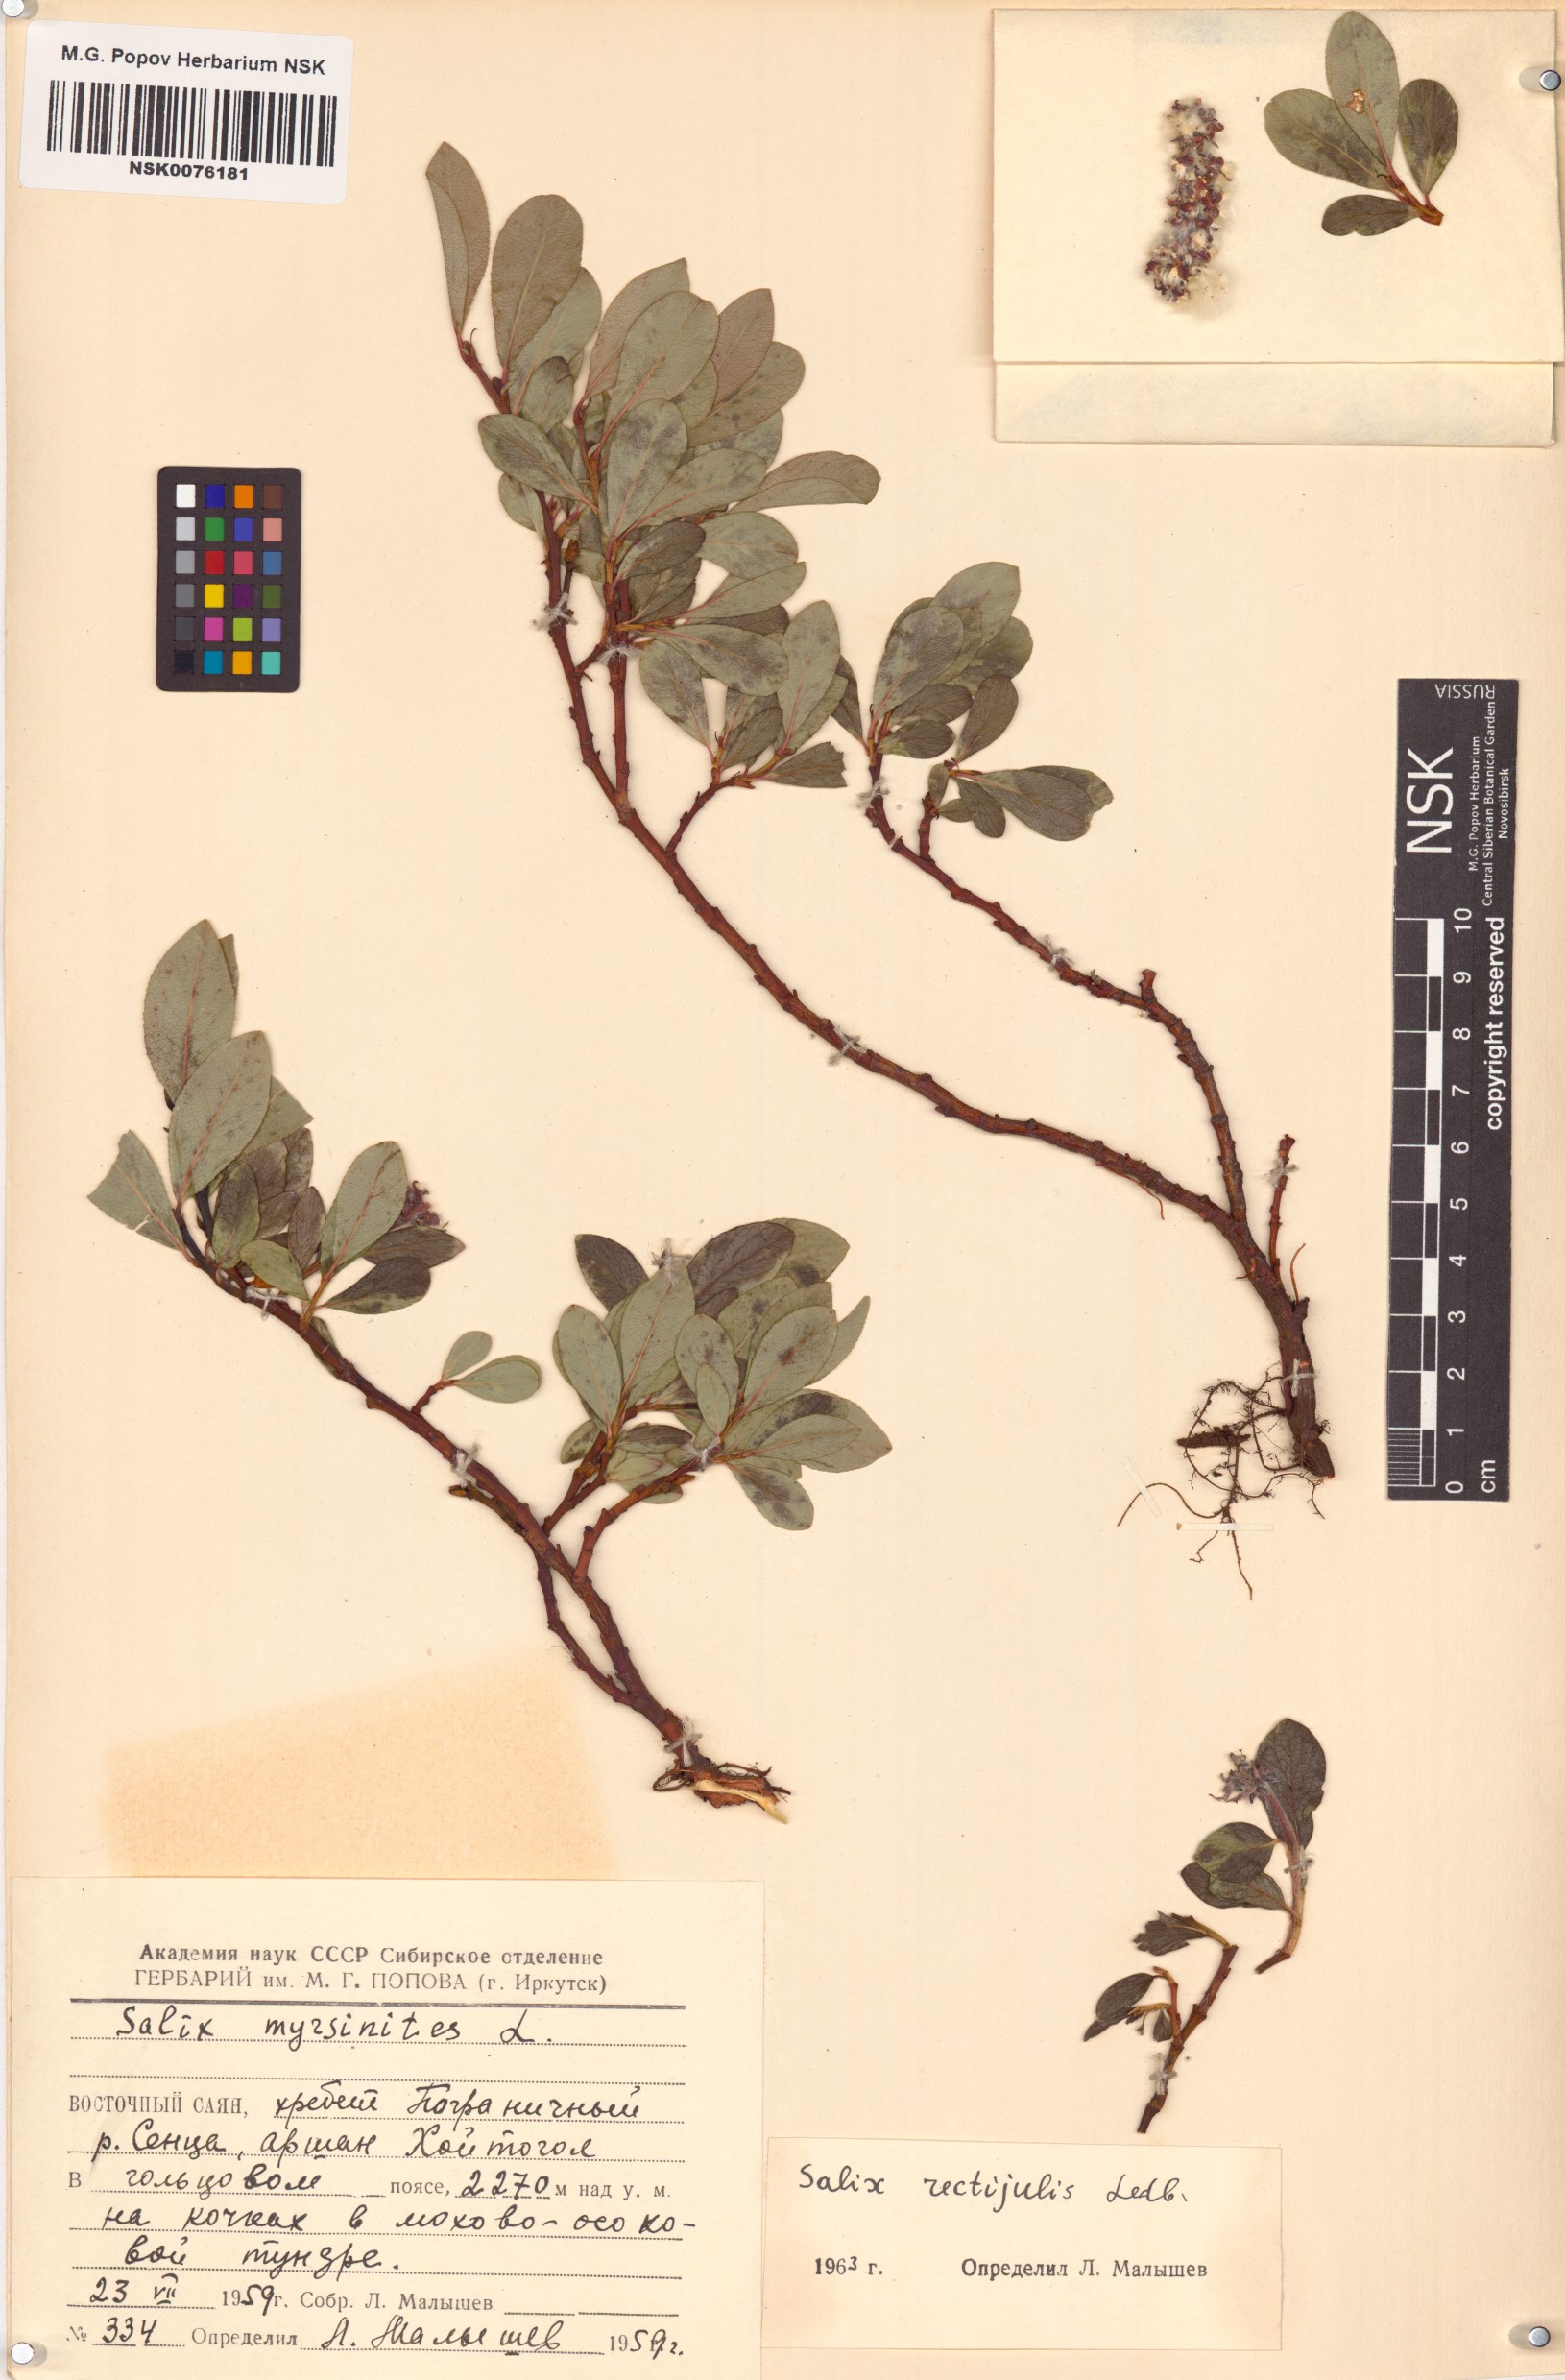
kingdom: Plantae
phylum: Tracheophyta
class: Magnoliopsida
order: Malpighiales
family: Salicaceae
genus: Salix
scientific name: Salix rectijulis
